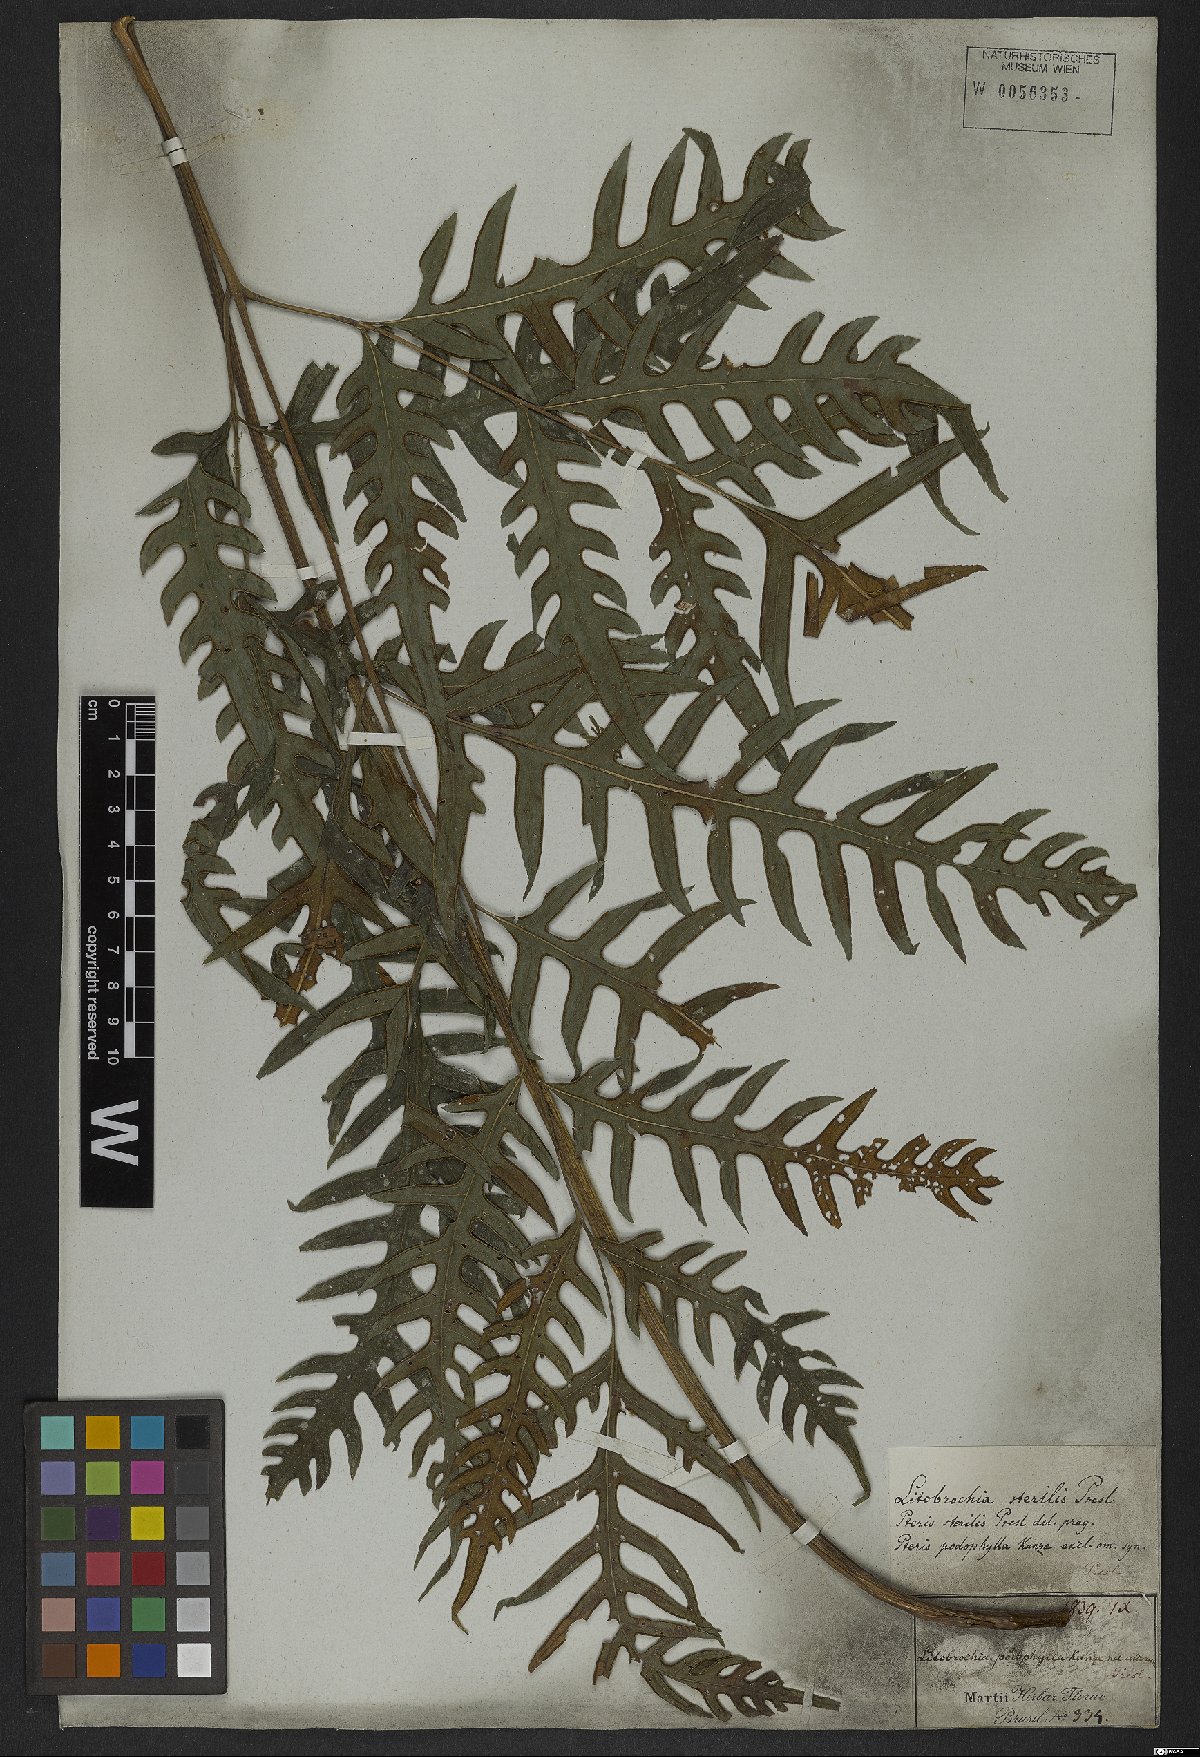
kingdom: Plantae
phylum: Tracheophyta
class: Polypodiopsida
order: Polypodiales
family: Pteridaceae
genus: Pteris
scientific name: Pteris altissima
